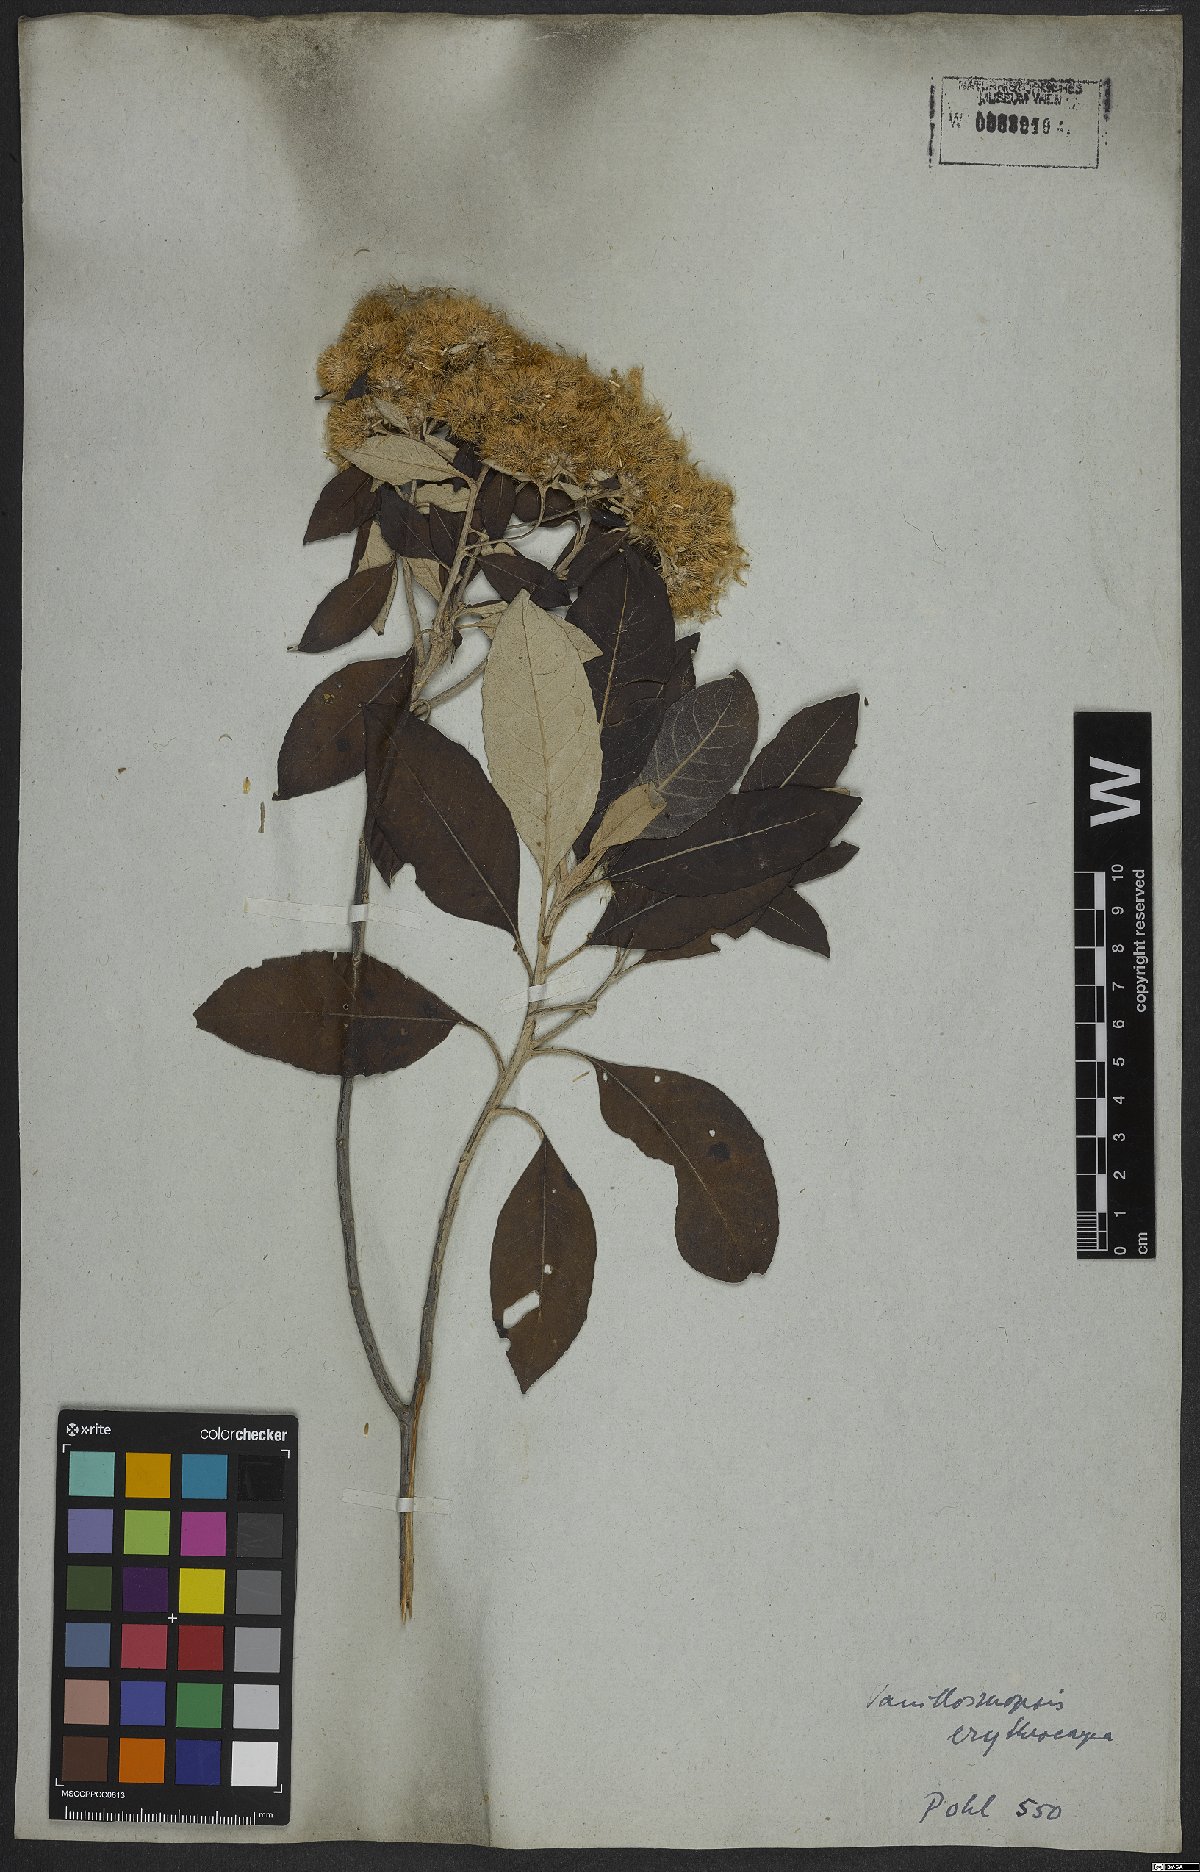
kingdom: Plantae
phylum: Tracheophyta
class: Magnoliopsida
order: Asterales
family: Asteraceae
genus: Eremanthus
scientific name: Eremanthus erythropappus
